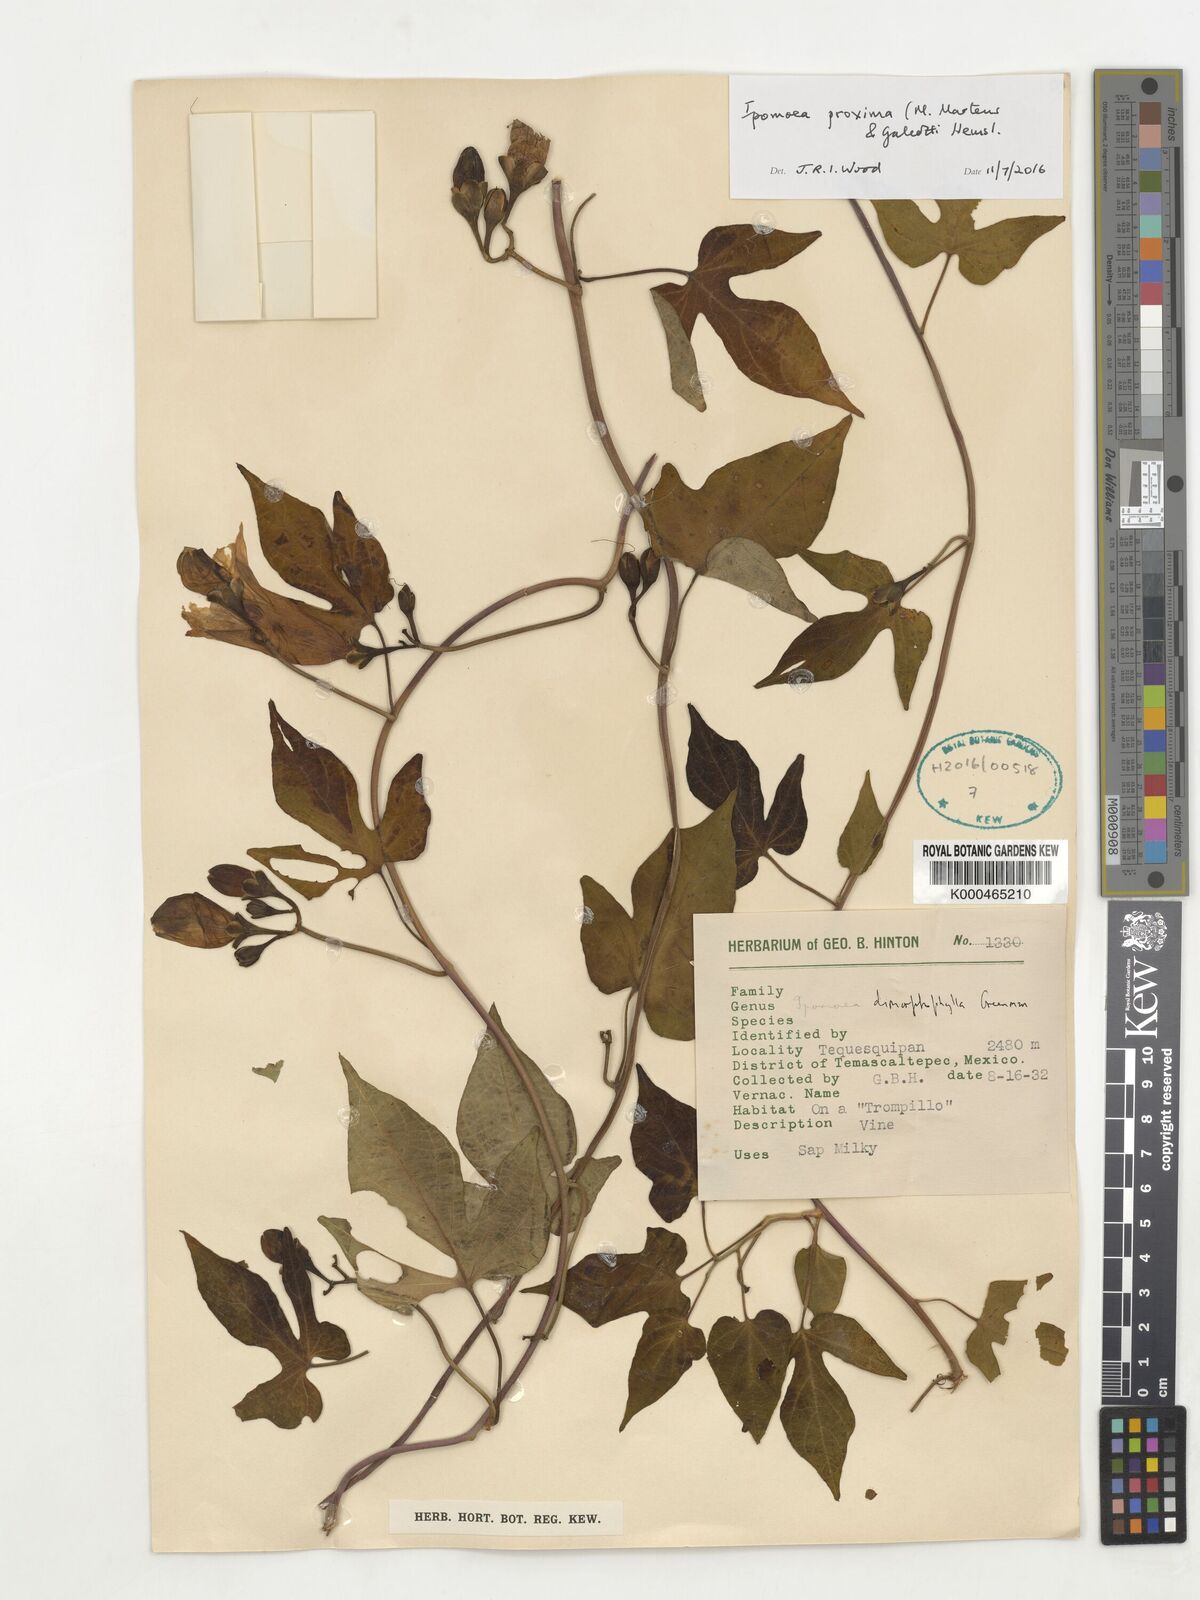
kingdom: Plantae
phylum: Tracheophyta
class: Magnoliopsida
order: Solanales
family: Convolvulaceae
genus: Ipomoea
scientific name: Ipomoea proxima
